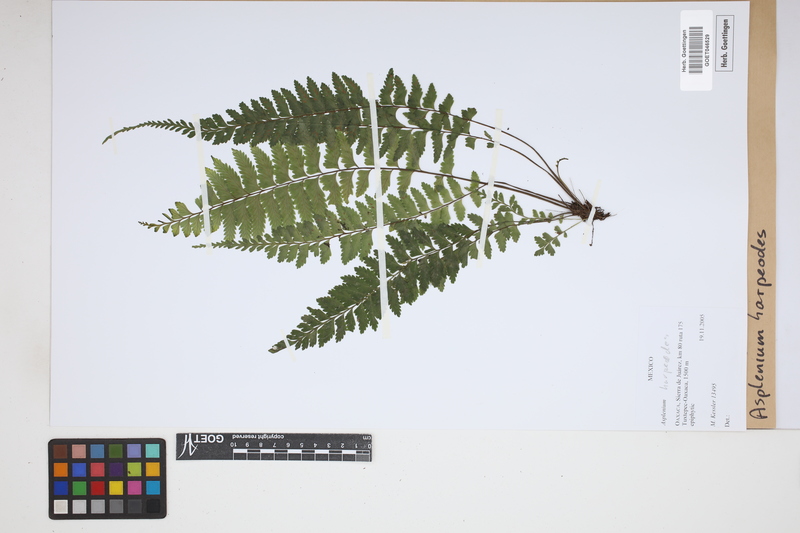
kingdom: Plantae
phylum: Tracheophyta
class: Polypodiopsida
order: Polypodiales
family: Aspleniaceae
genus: Asplenium
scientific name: Asplenium harpeodes
